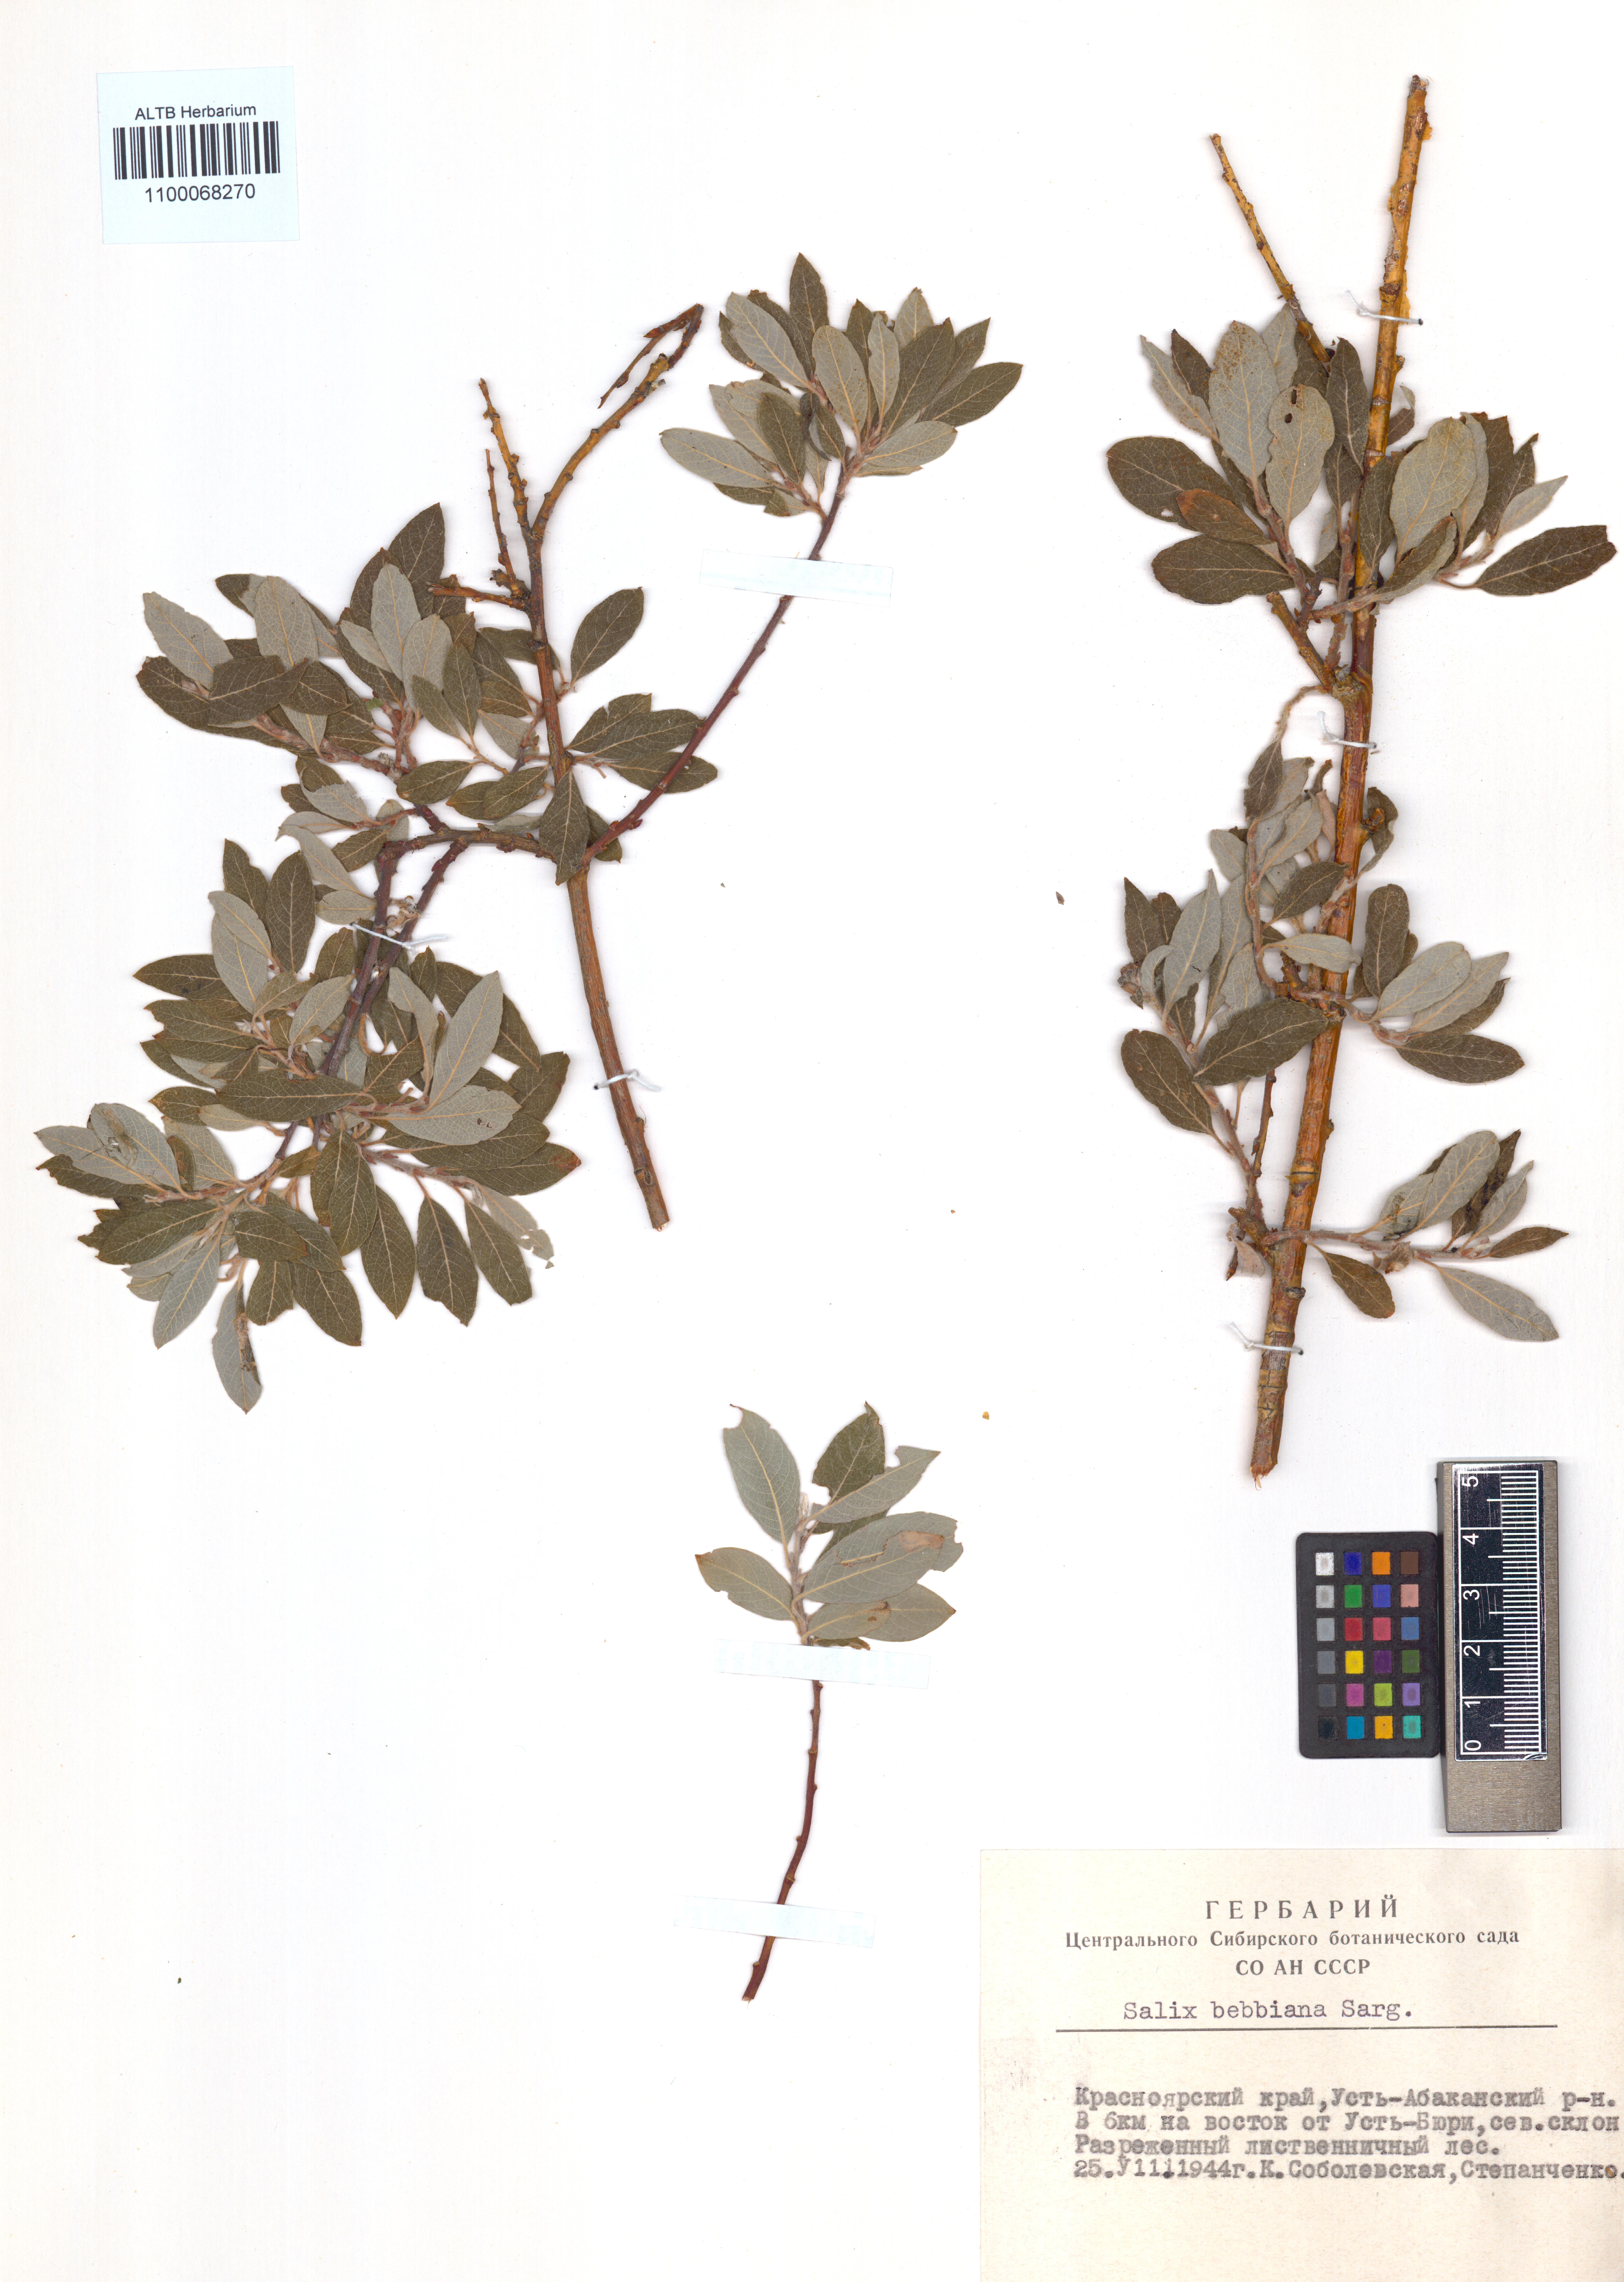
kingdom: Plantae
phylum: Tracheophyta
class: Magnoliopsida
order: Malpighiales
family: Salicaceae
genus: Salix
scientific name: Salix bebbiana
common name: Bebb's willow
